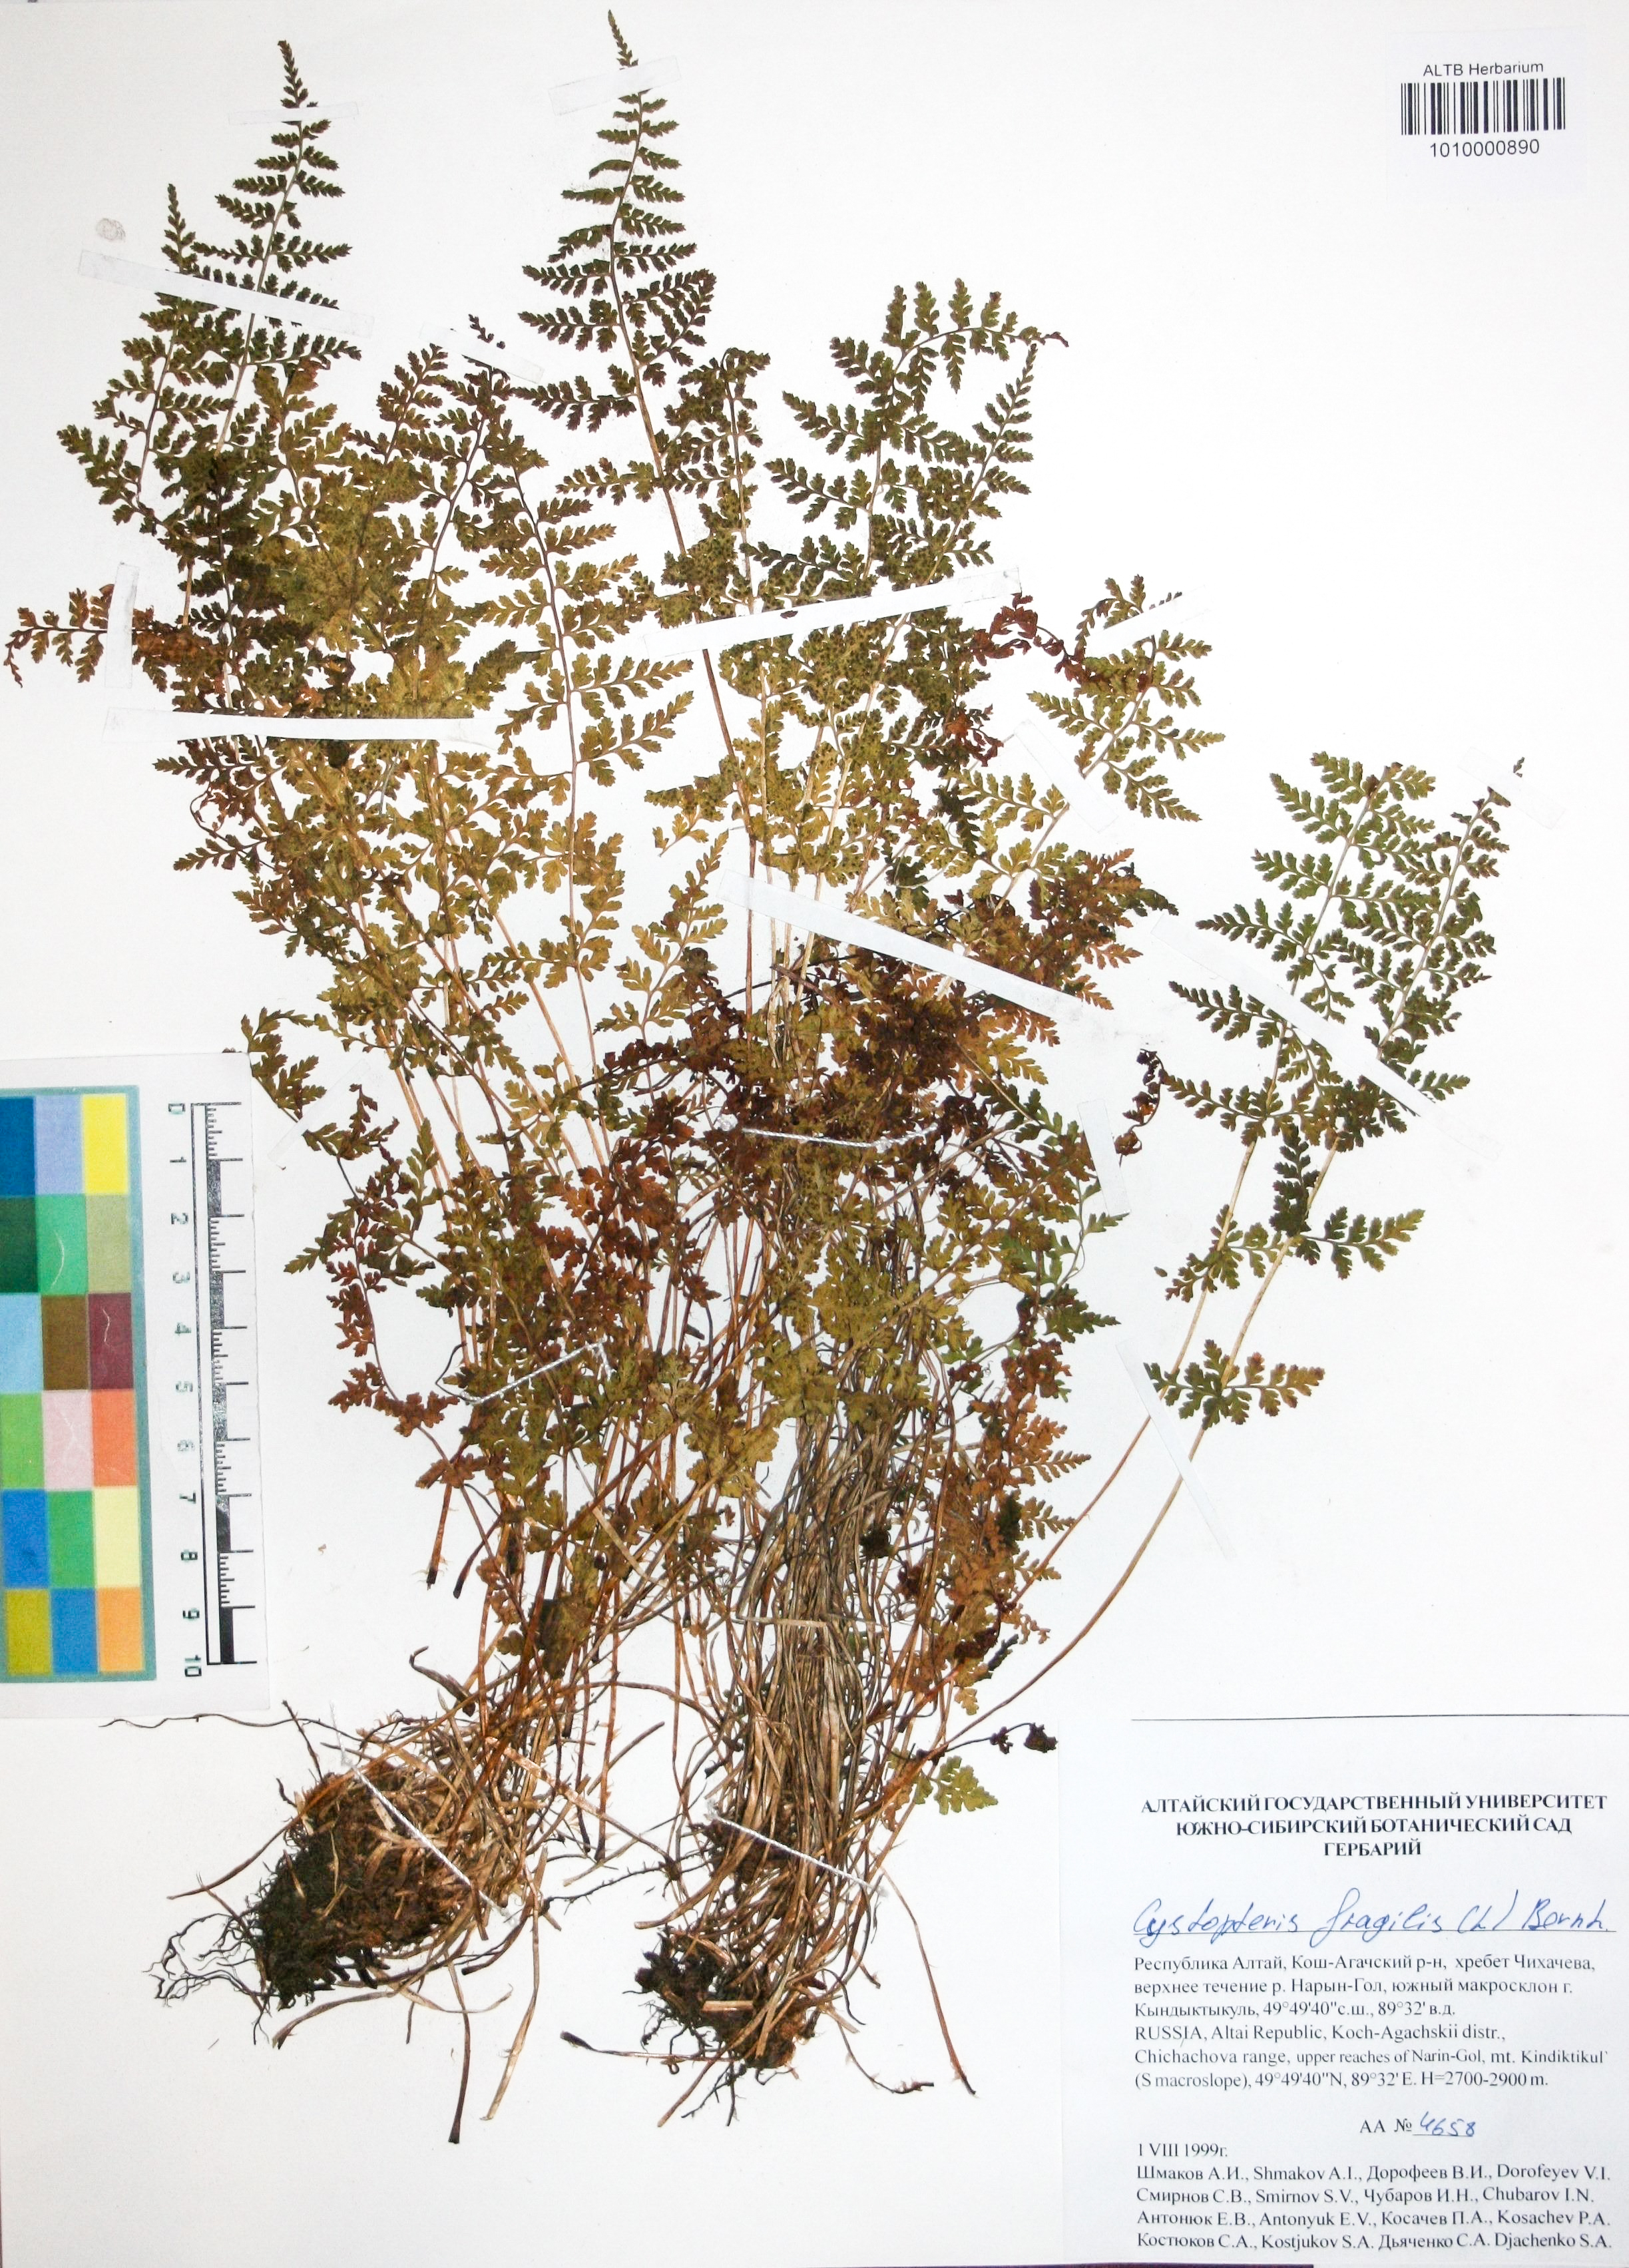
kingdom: Plantae
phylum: Tracheophyta
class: Polypodiopsida
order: Polypodiales
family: Cystopteridaceae
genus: Cystopteris
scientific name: Cystopteris fragilis
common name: Brittle bladder fern
